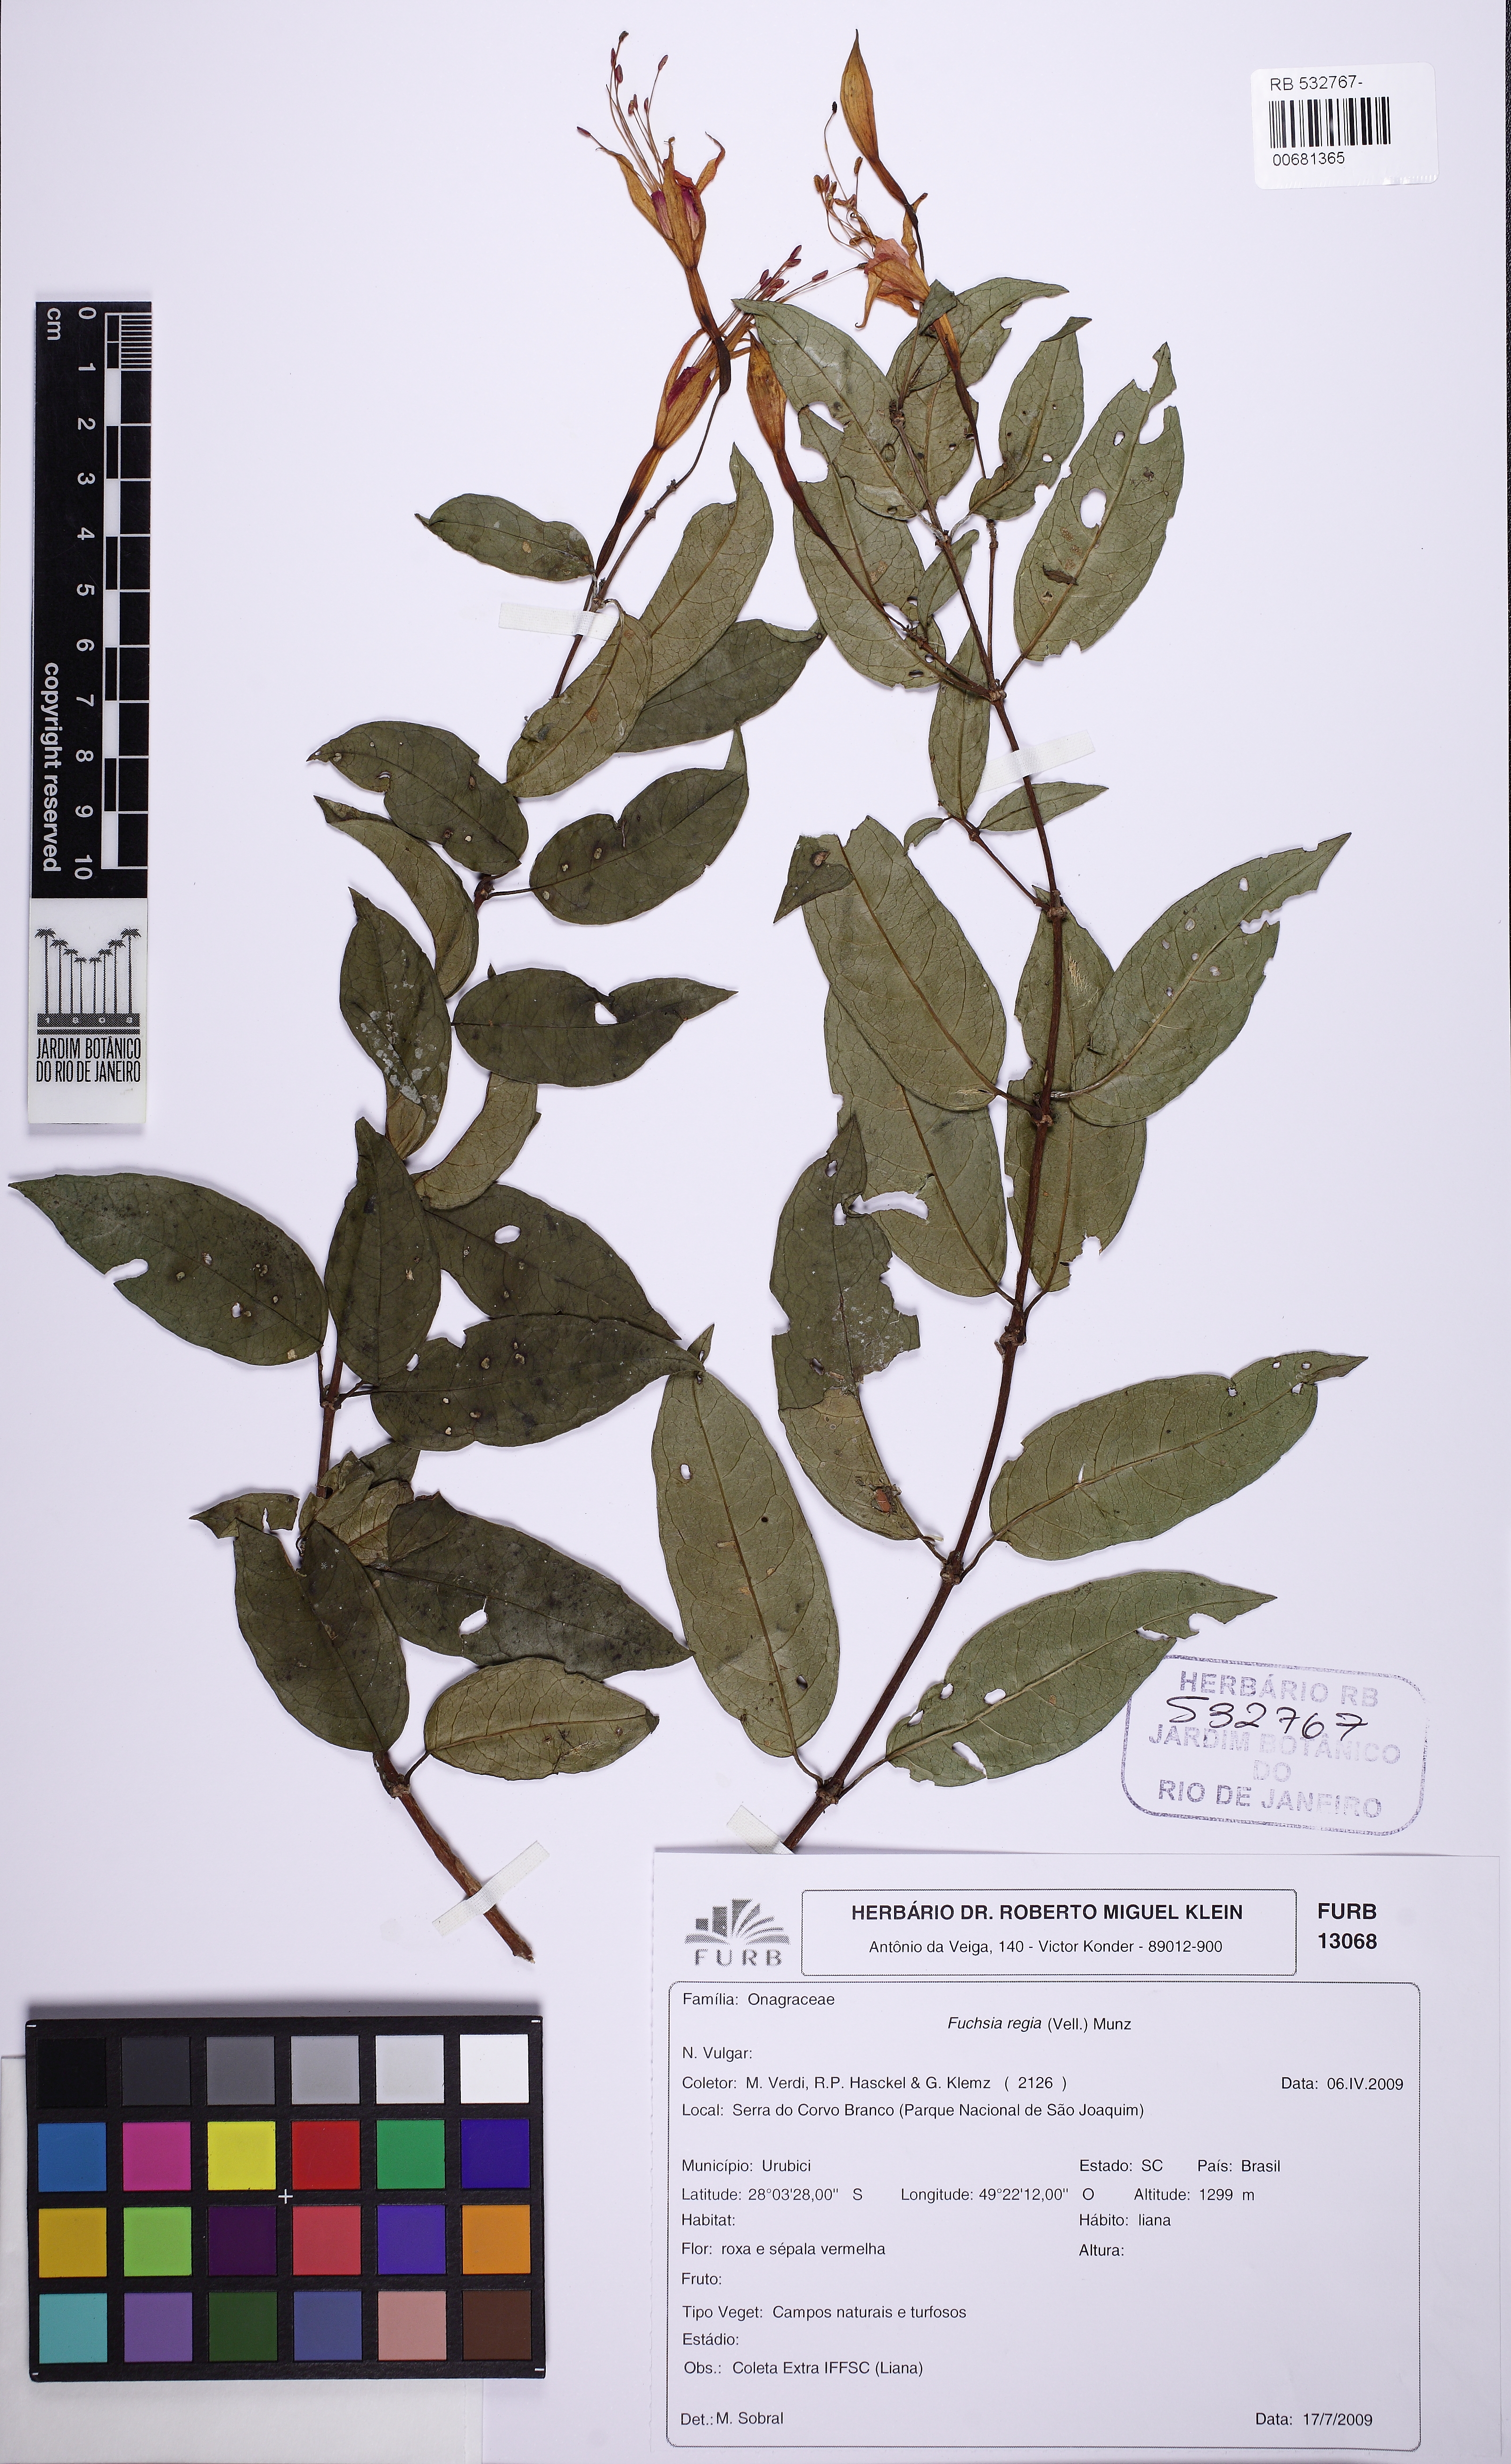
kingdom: Plantae
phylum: Tracheophyta
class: Magnoliopsida
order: Myrtales
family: Onagraceae
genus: Fuchsia
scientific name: Fuchsia regia
